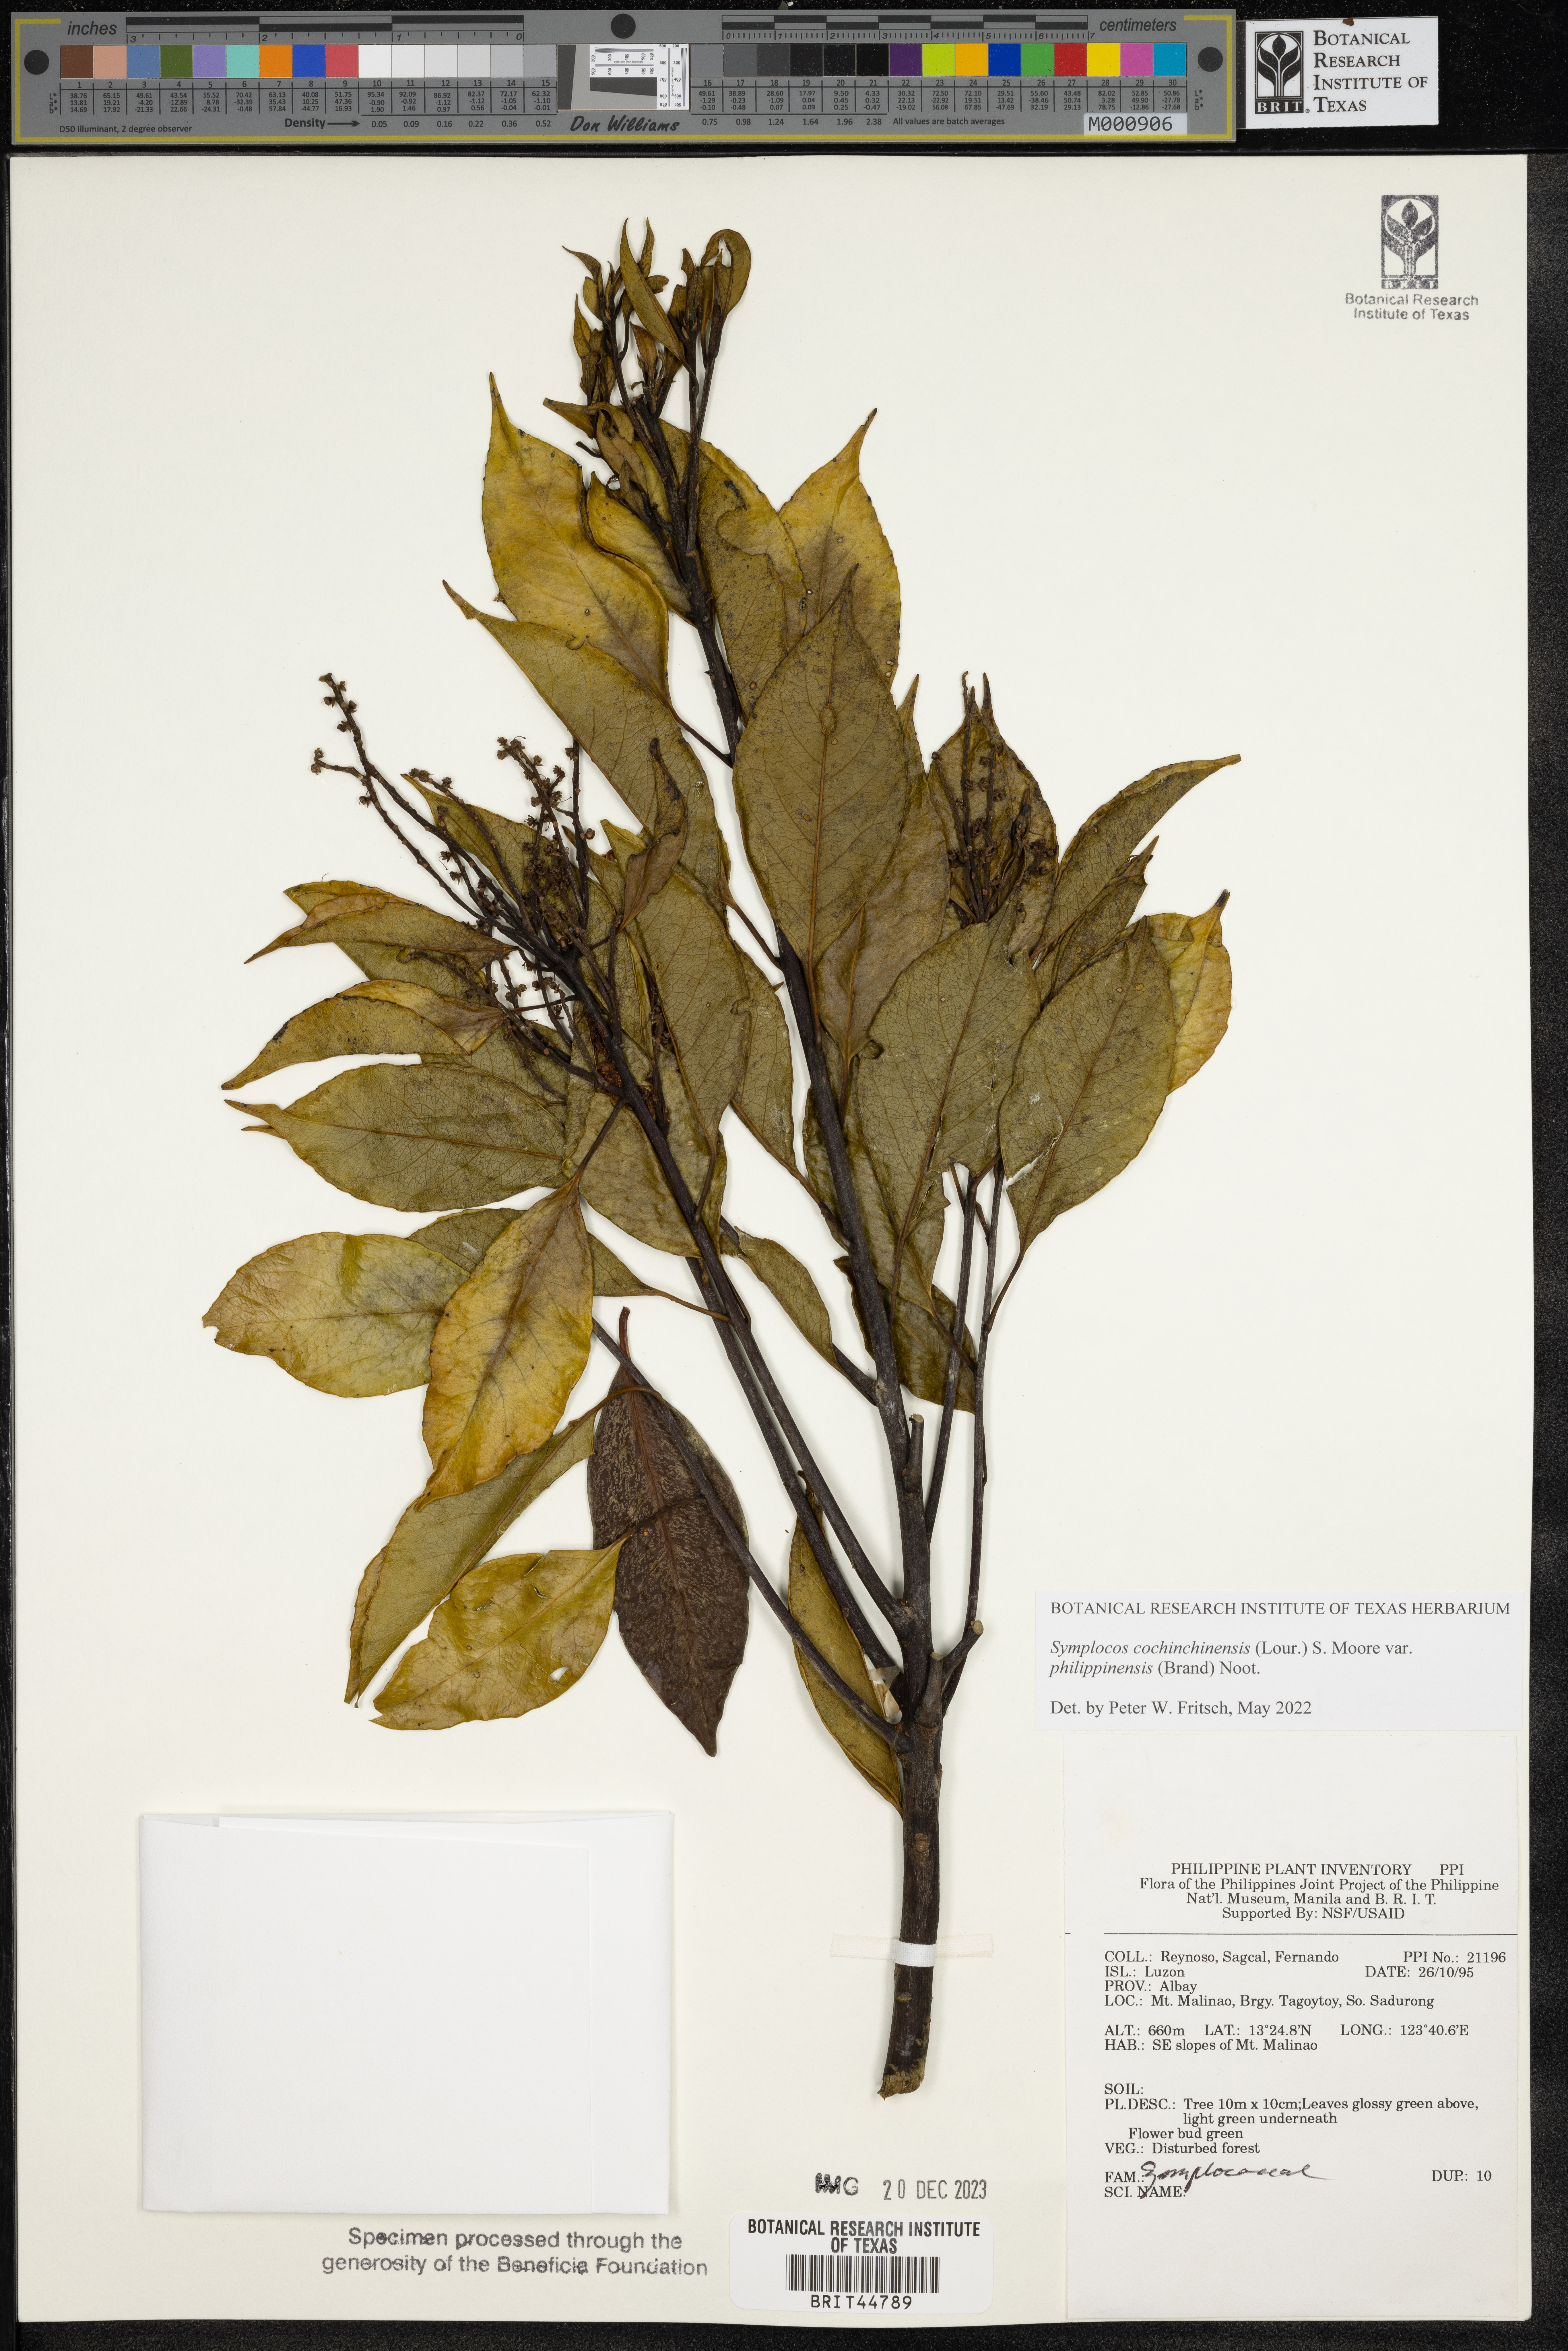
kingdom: Plantae
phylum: Tracheophyta
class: Magnoliopsida
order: Ericales
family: Symplocaceae
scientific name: Symplocaceae
